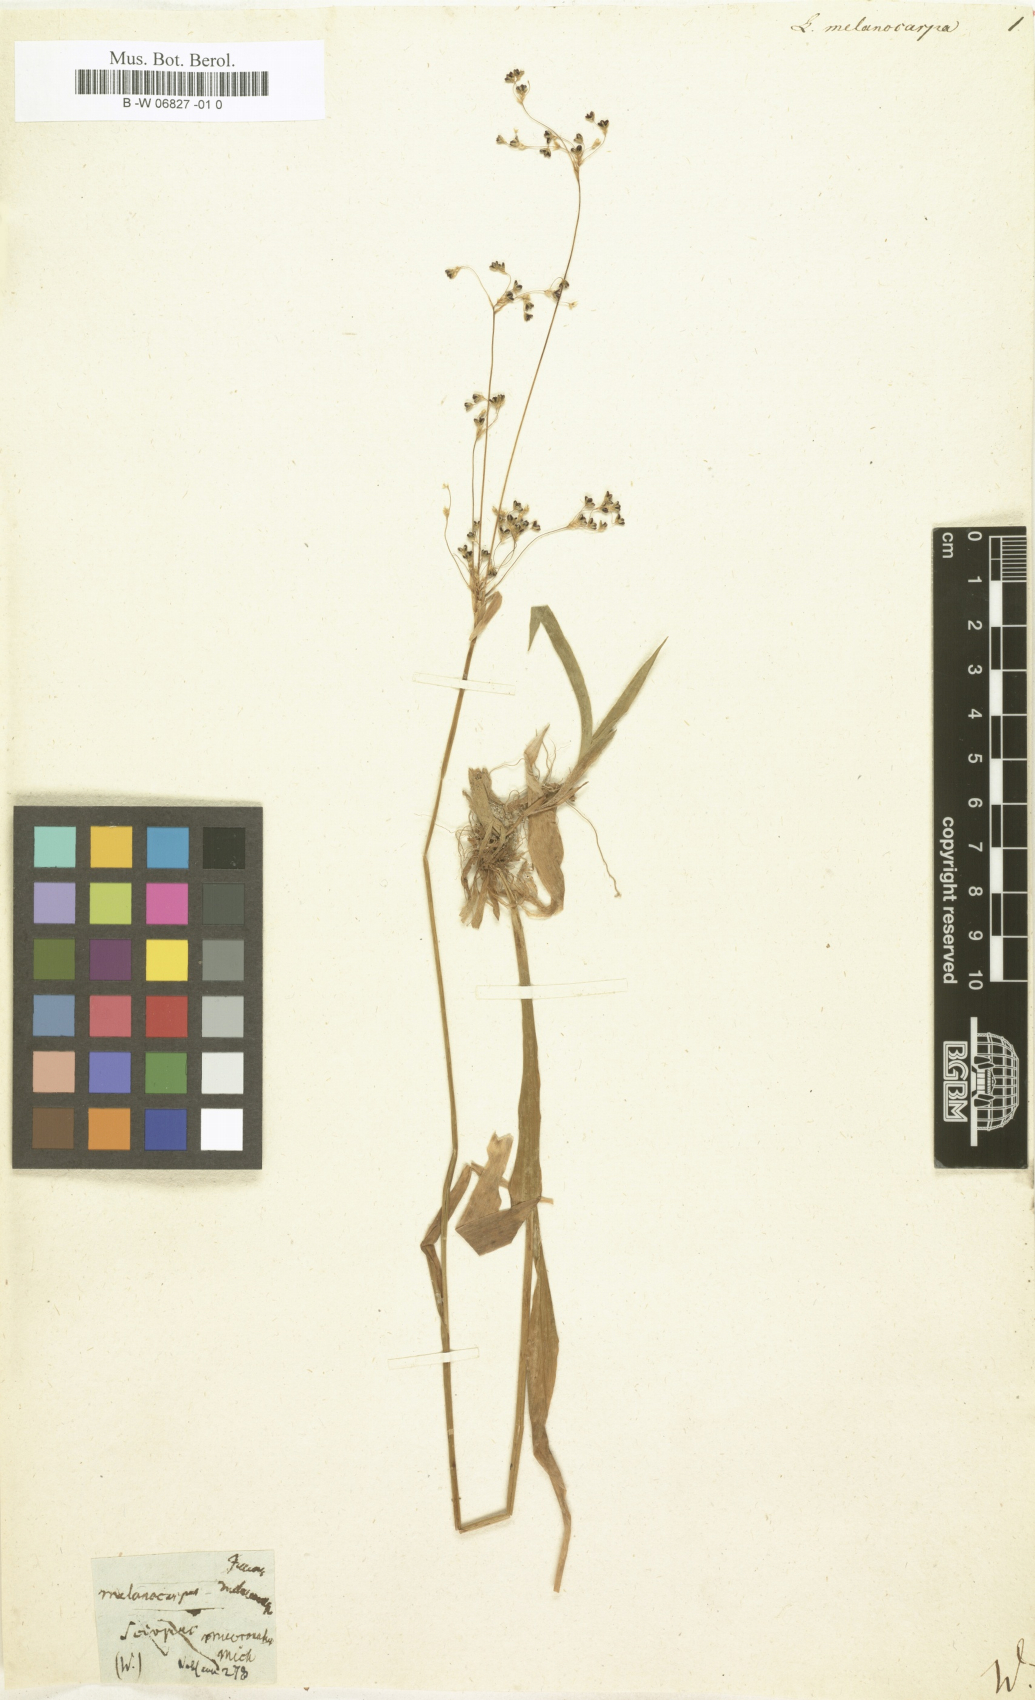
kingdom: Plantae
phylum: Tracheophyta
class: Liliopsida
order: Poales
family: Juncaceae
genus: Luzula
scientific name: Luzula parviflora
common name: Millet woodrush
